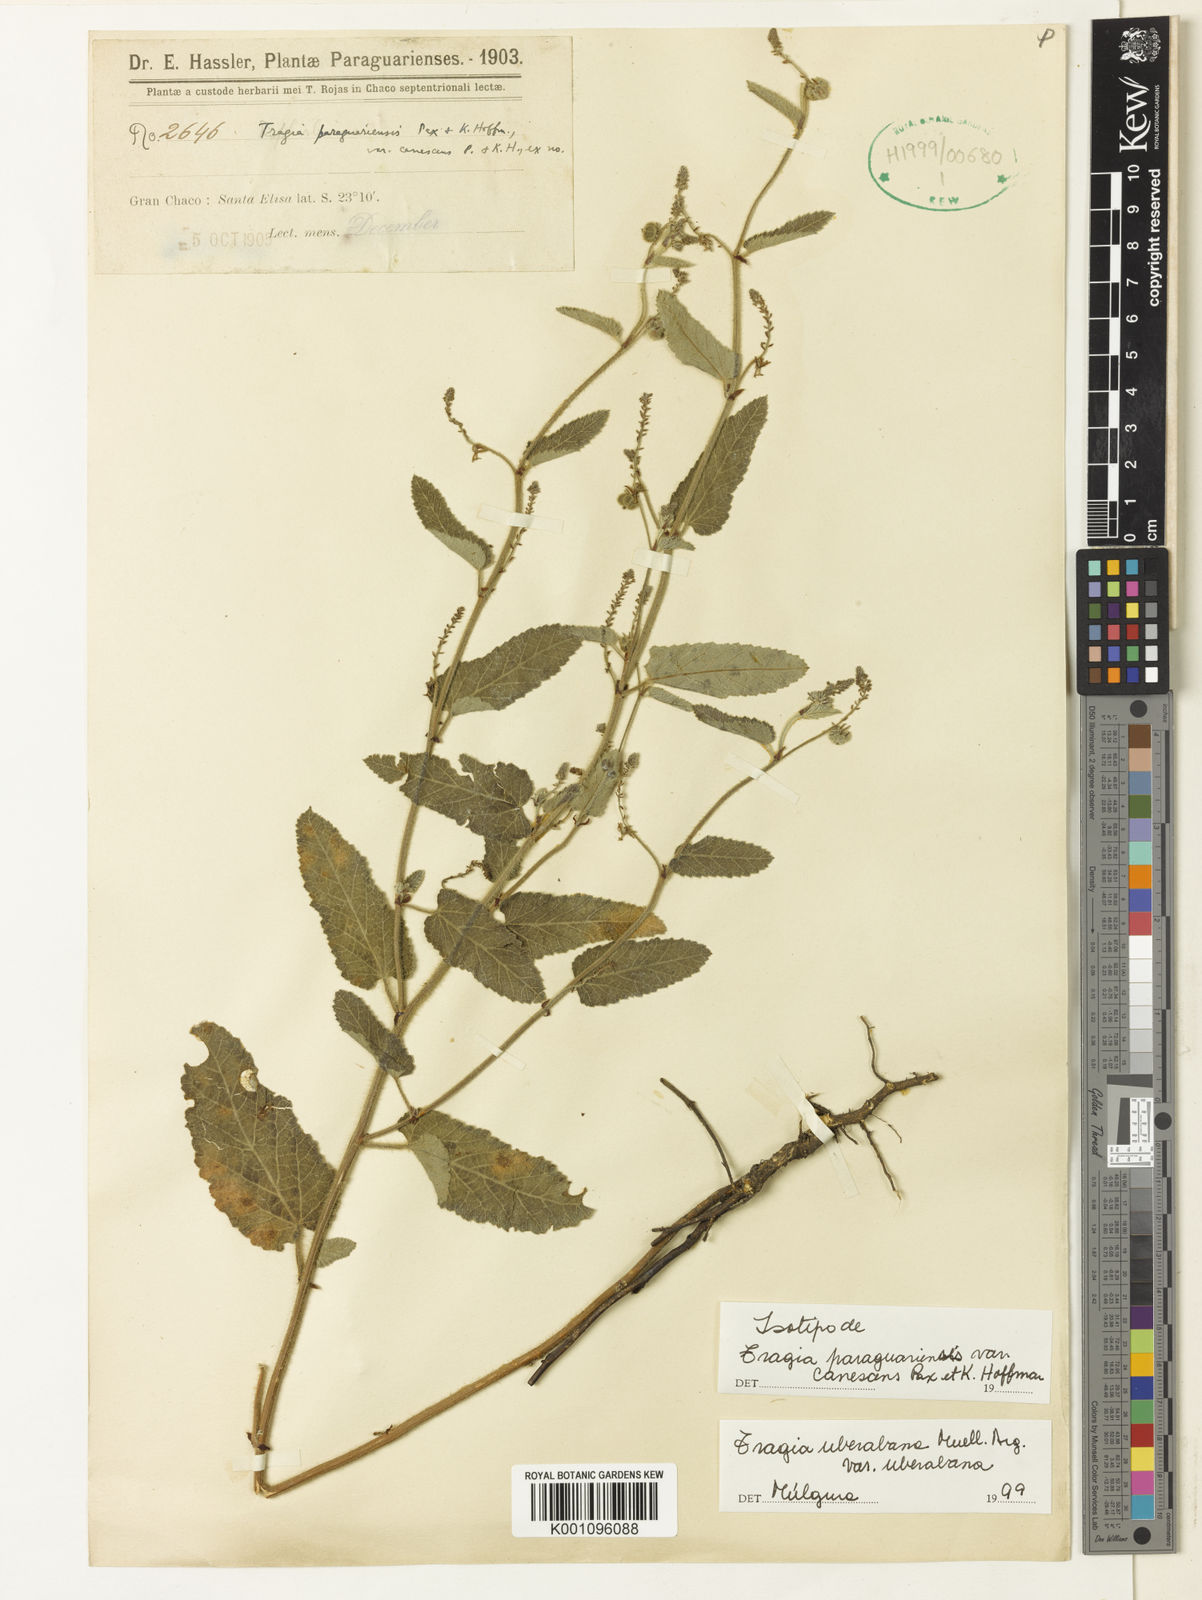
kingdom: Plantae
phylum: Tracheophyta
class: Magnoliopsida
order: Malpighiales
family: Euphorbiaceae
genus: Tragia
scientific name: Tragia
